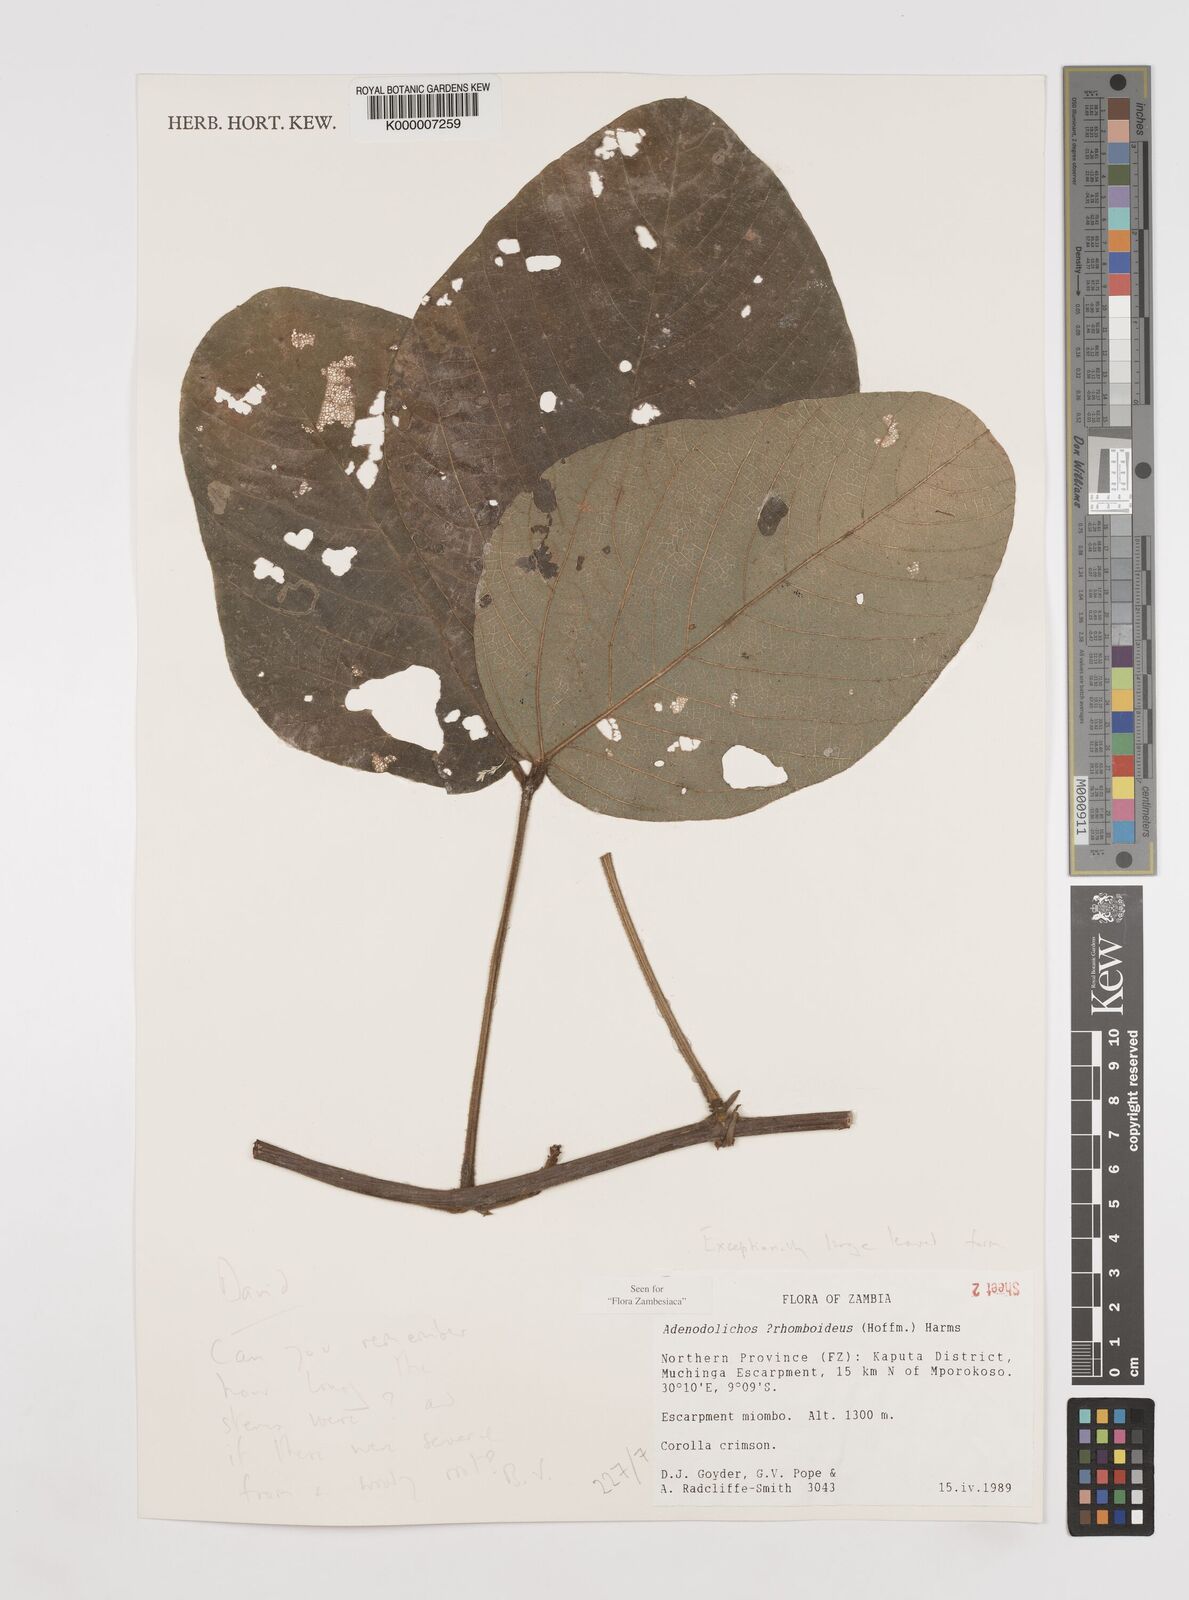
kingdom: Plantae
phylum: Tracheophyta
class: Magnoliopsida
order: Fabales
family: Fabaceae
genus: Adenodolichos
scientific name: Adenodolichos rhomboideus
